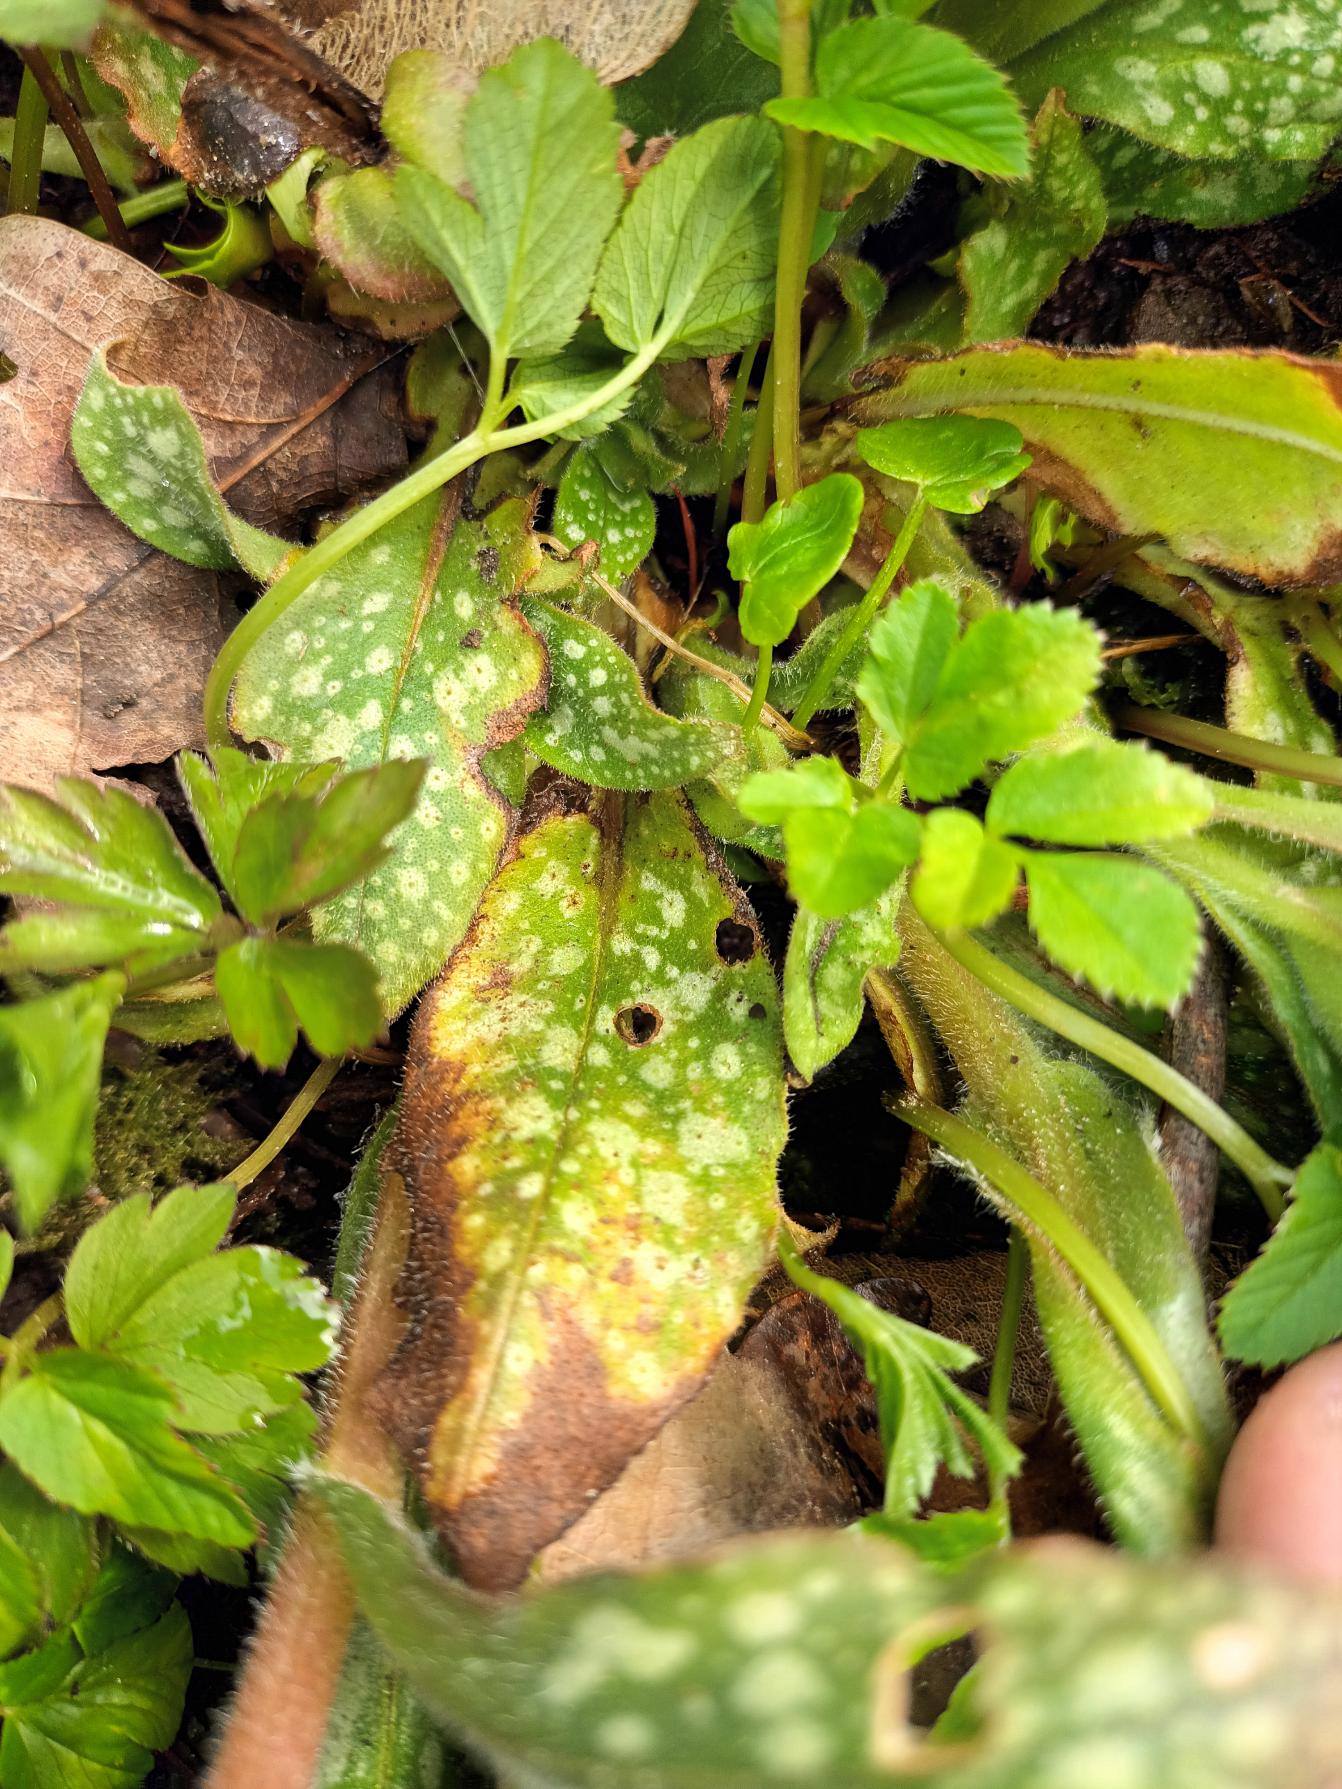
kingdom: Plantae
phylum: Tracheophyta
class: Magnoliopsida
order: Boraginales
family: Boraginaceae
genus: Pulmonaria
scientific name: Pulmonaria
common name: Lungeurtslægten
